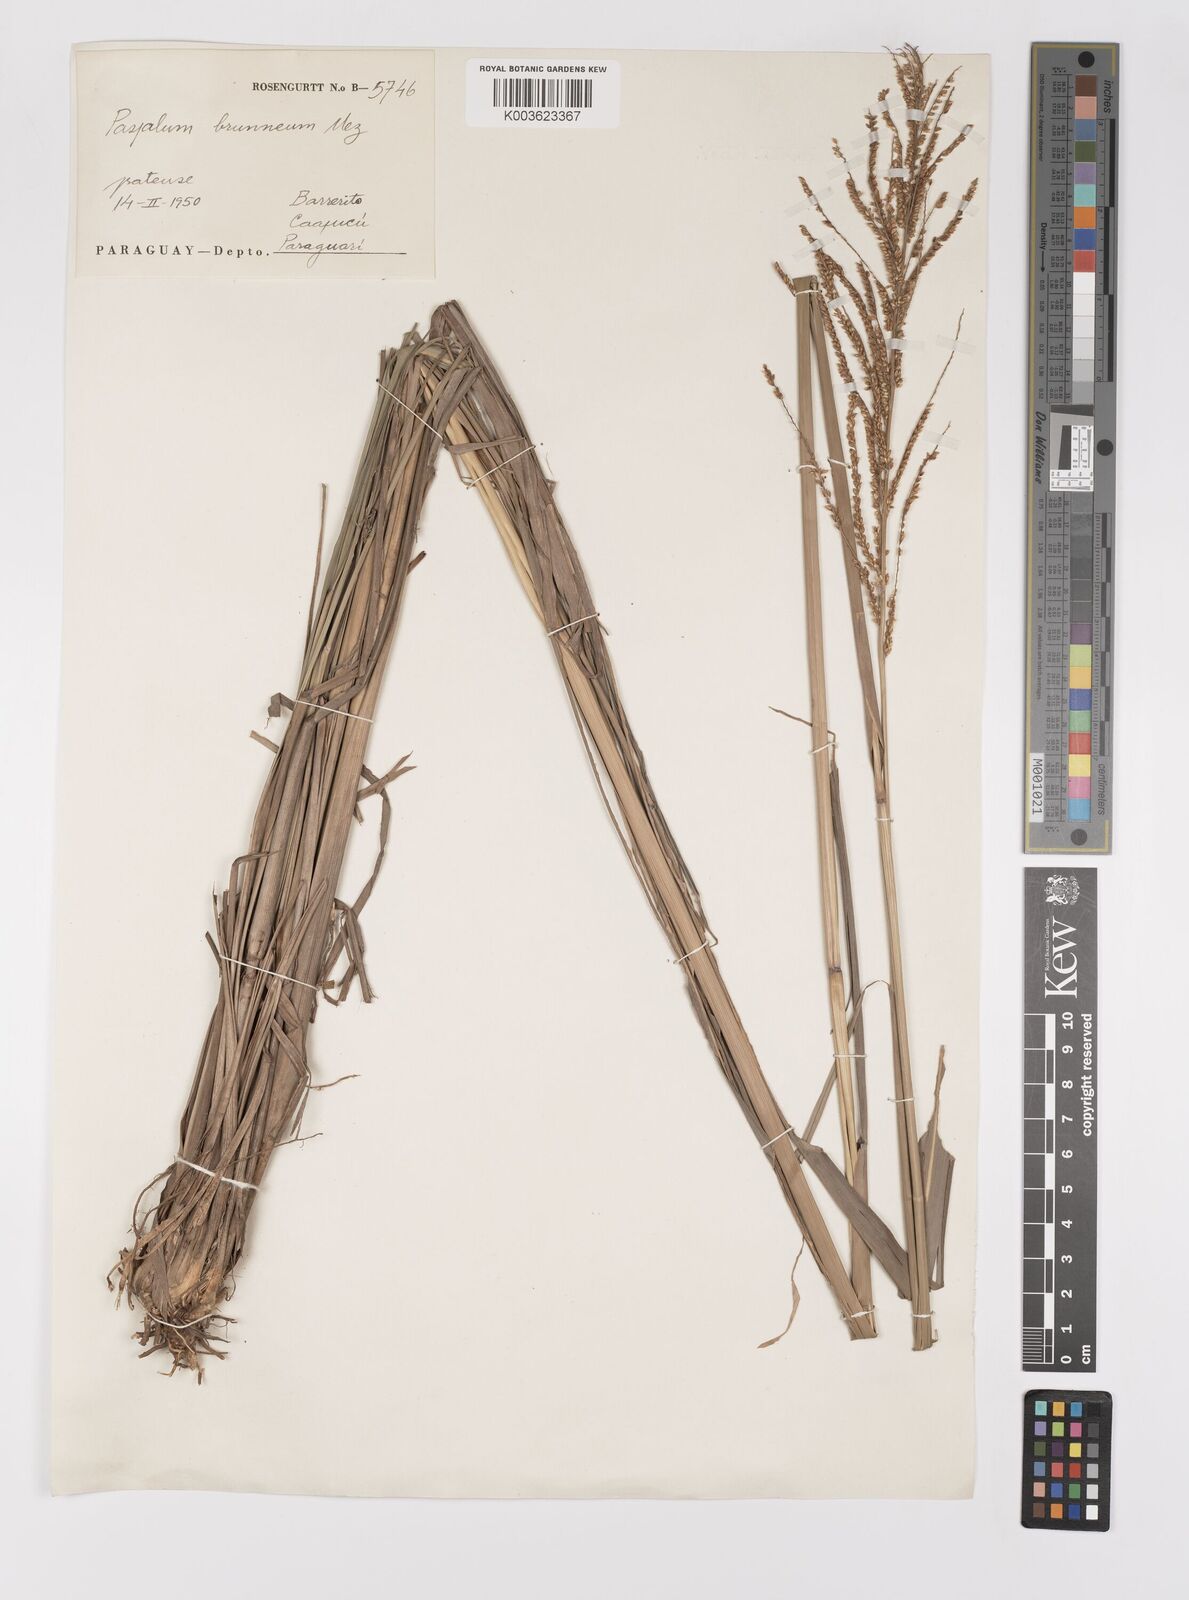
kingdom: Plantae
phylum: Tracheophyta
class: Liliopsida
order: Poales
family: Poaceae
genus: Paspalum
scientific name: Paspalum coryphaeum
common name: Emperor crowngrass
